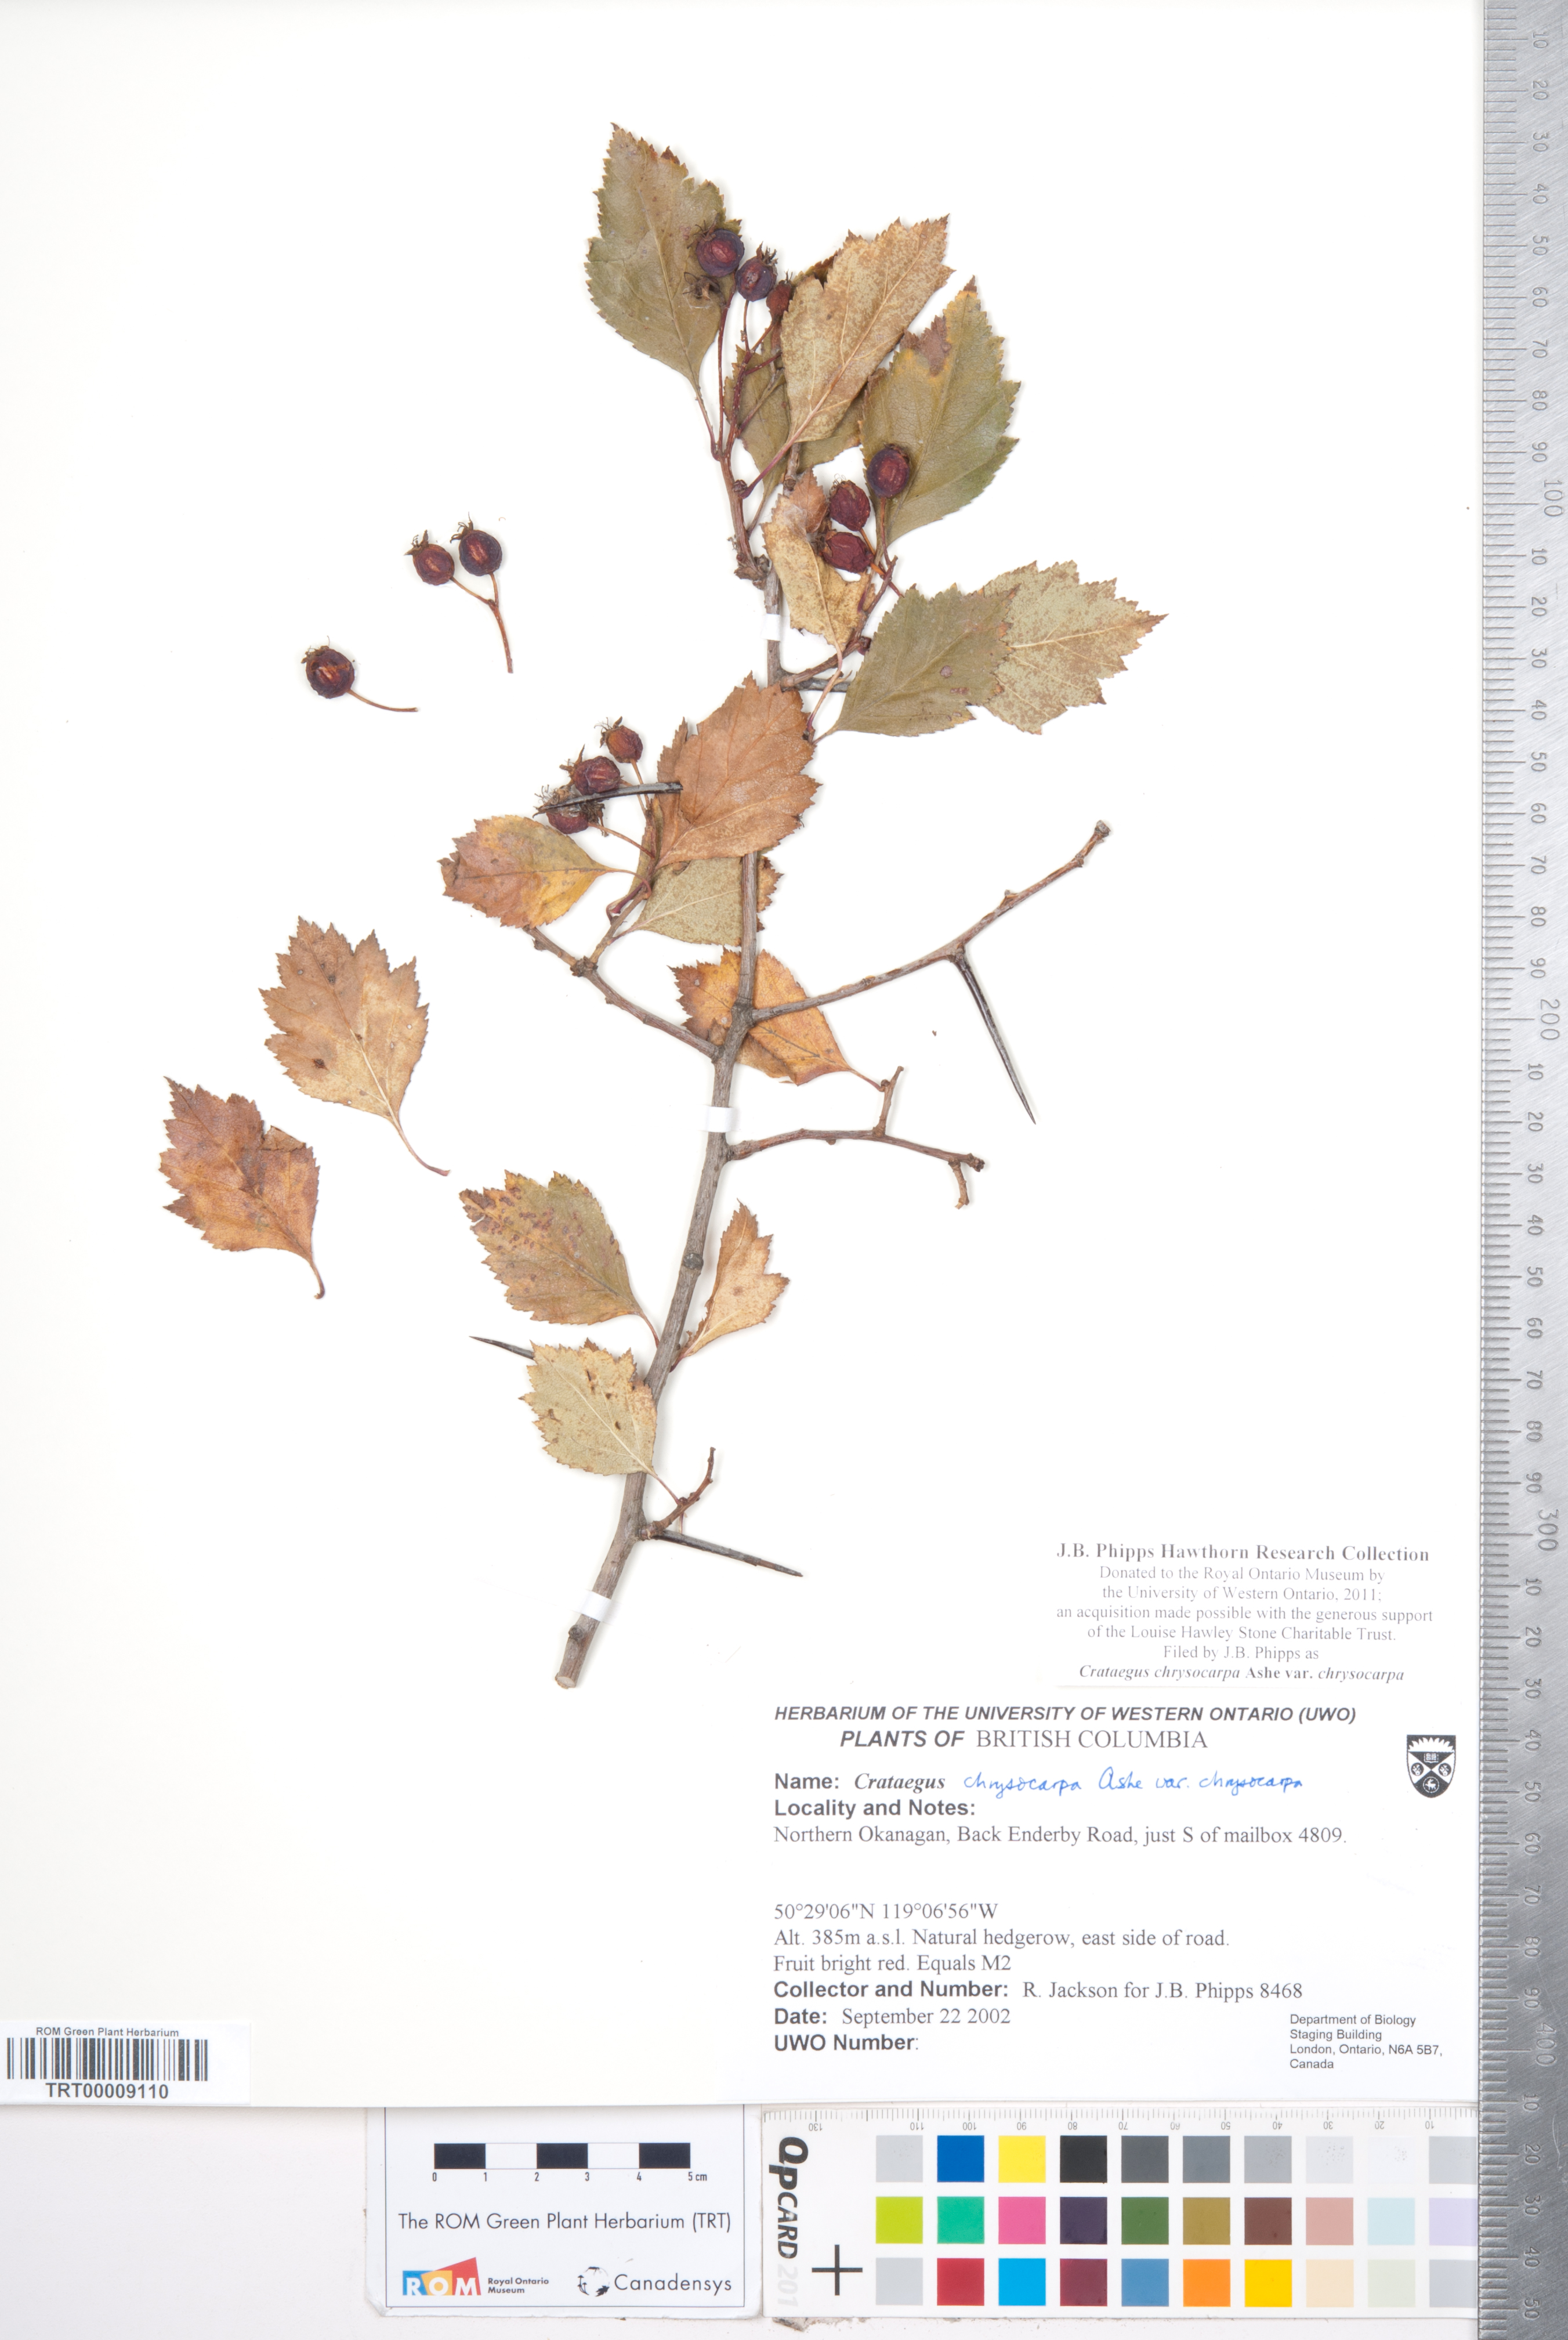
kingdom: Plantae
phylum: Tracheophyta
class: Magnoliopsida
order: Rosales
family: Rosaceae
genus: Crataegus
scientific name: Crataegus chrysocarpa
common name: Fire-berry hawthorn
